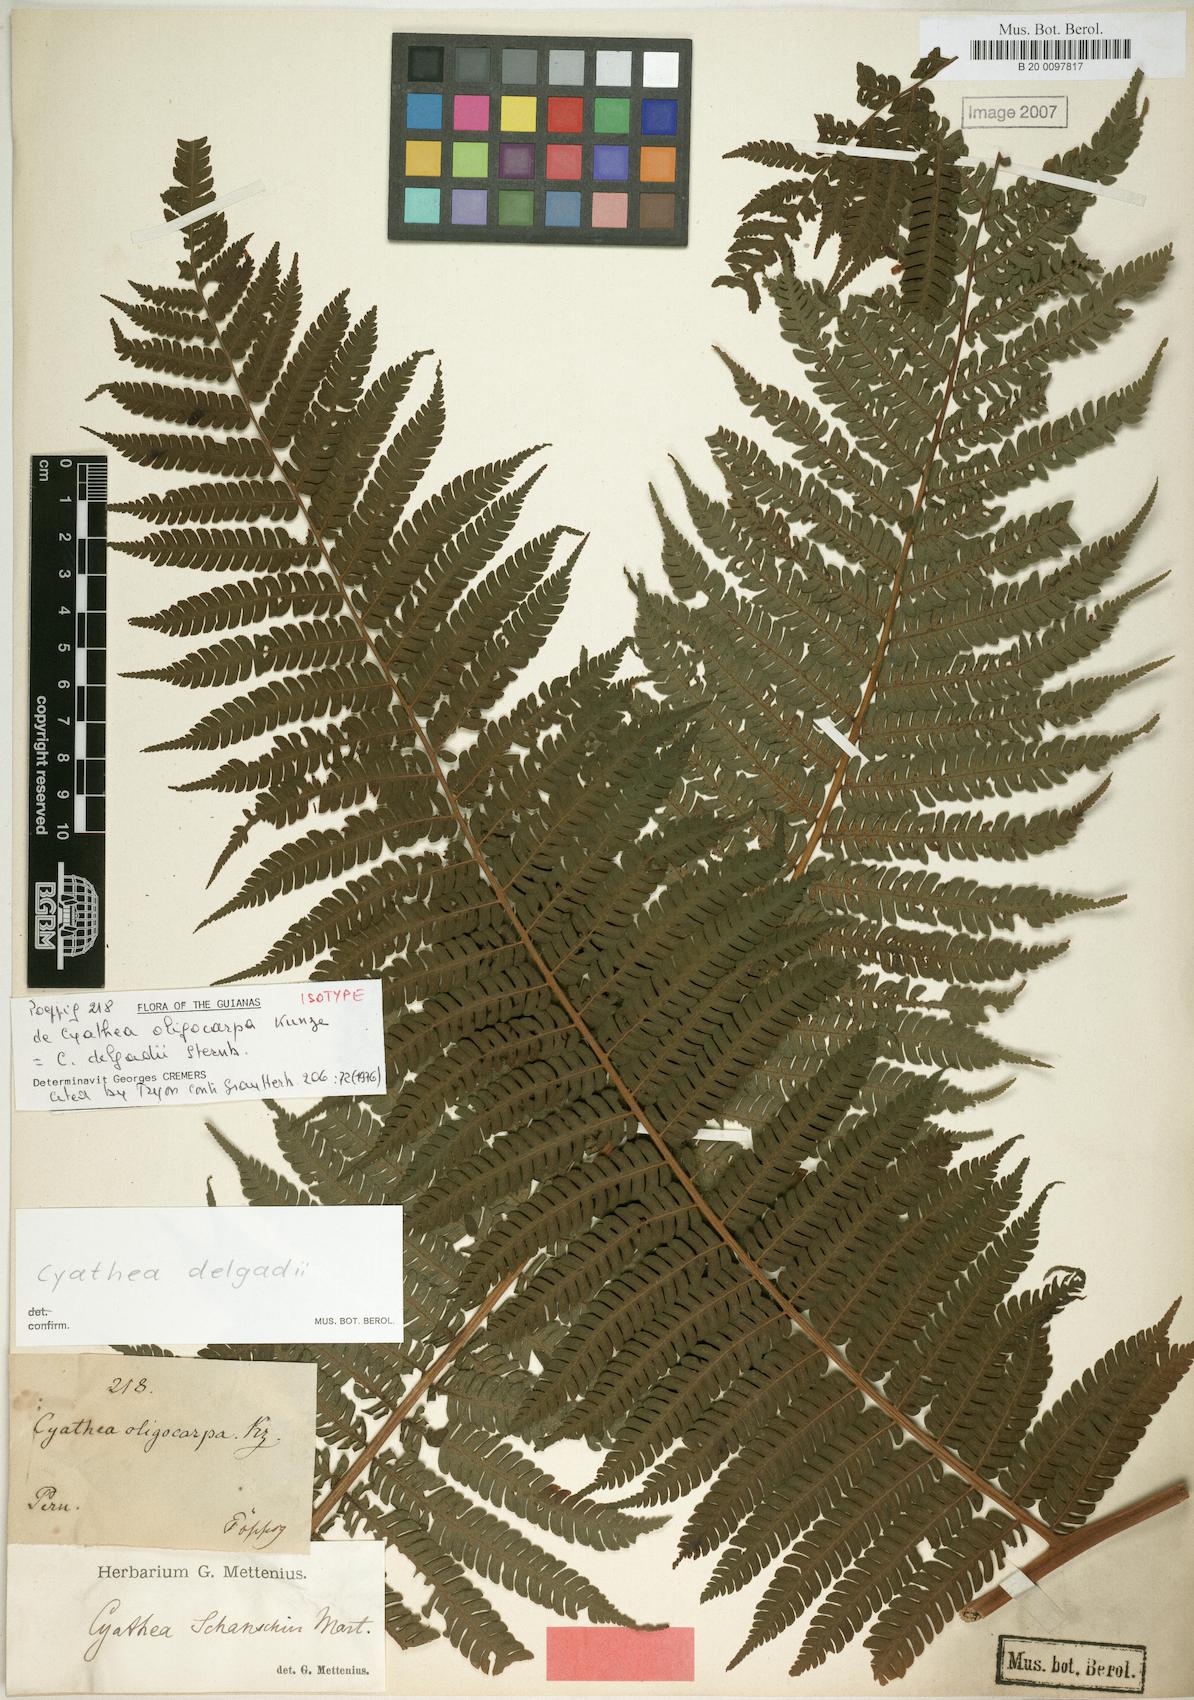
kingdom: Plantae
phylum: Tracheophyta
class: Polypodiopsida
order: Cyatheales
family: Cyatheaceae
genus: Cyathea
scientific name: Cyathea delgadii
